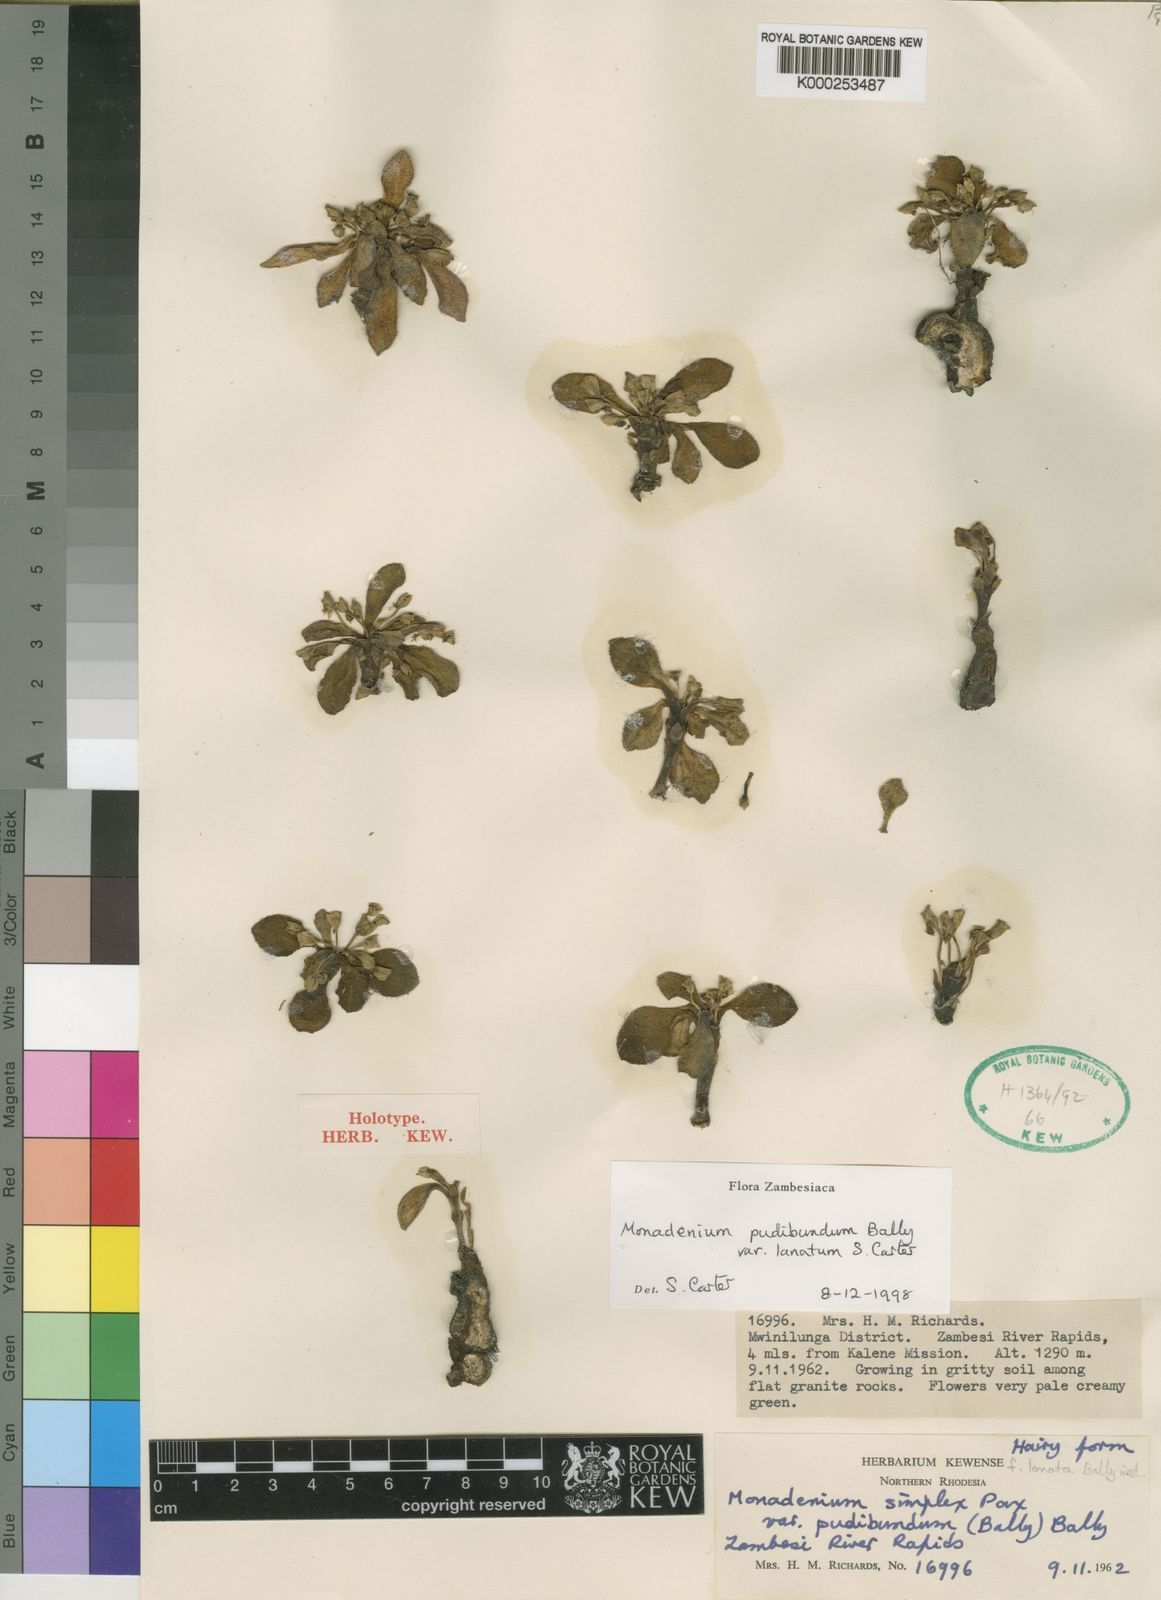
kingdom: Plantae
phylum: Tracheophyta
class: Magnoliopsida
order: Malpighiales
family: Euphorbiaceae
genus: Euphorbia
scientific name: Euphorbia pudibunda
